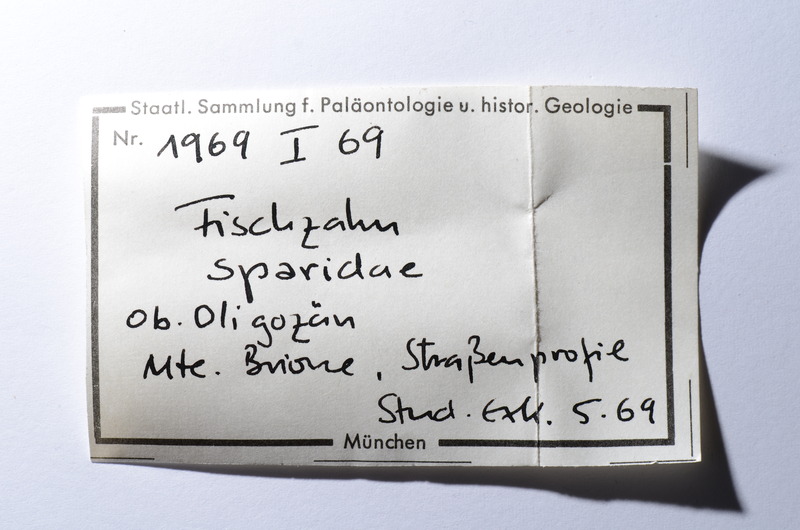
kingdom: Animalia
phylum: Chordata
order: Perciformes
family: Sparidae
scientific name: Sparidae
